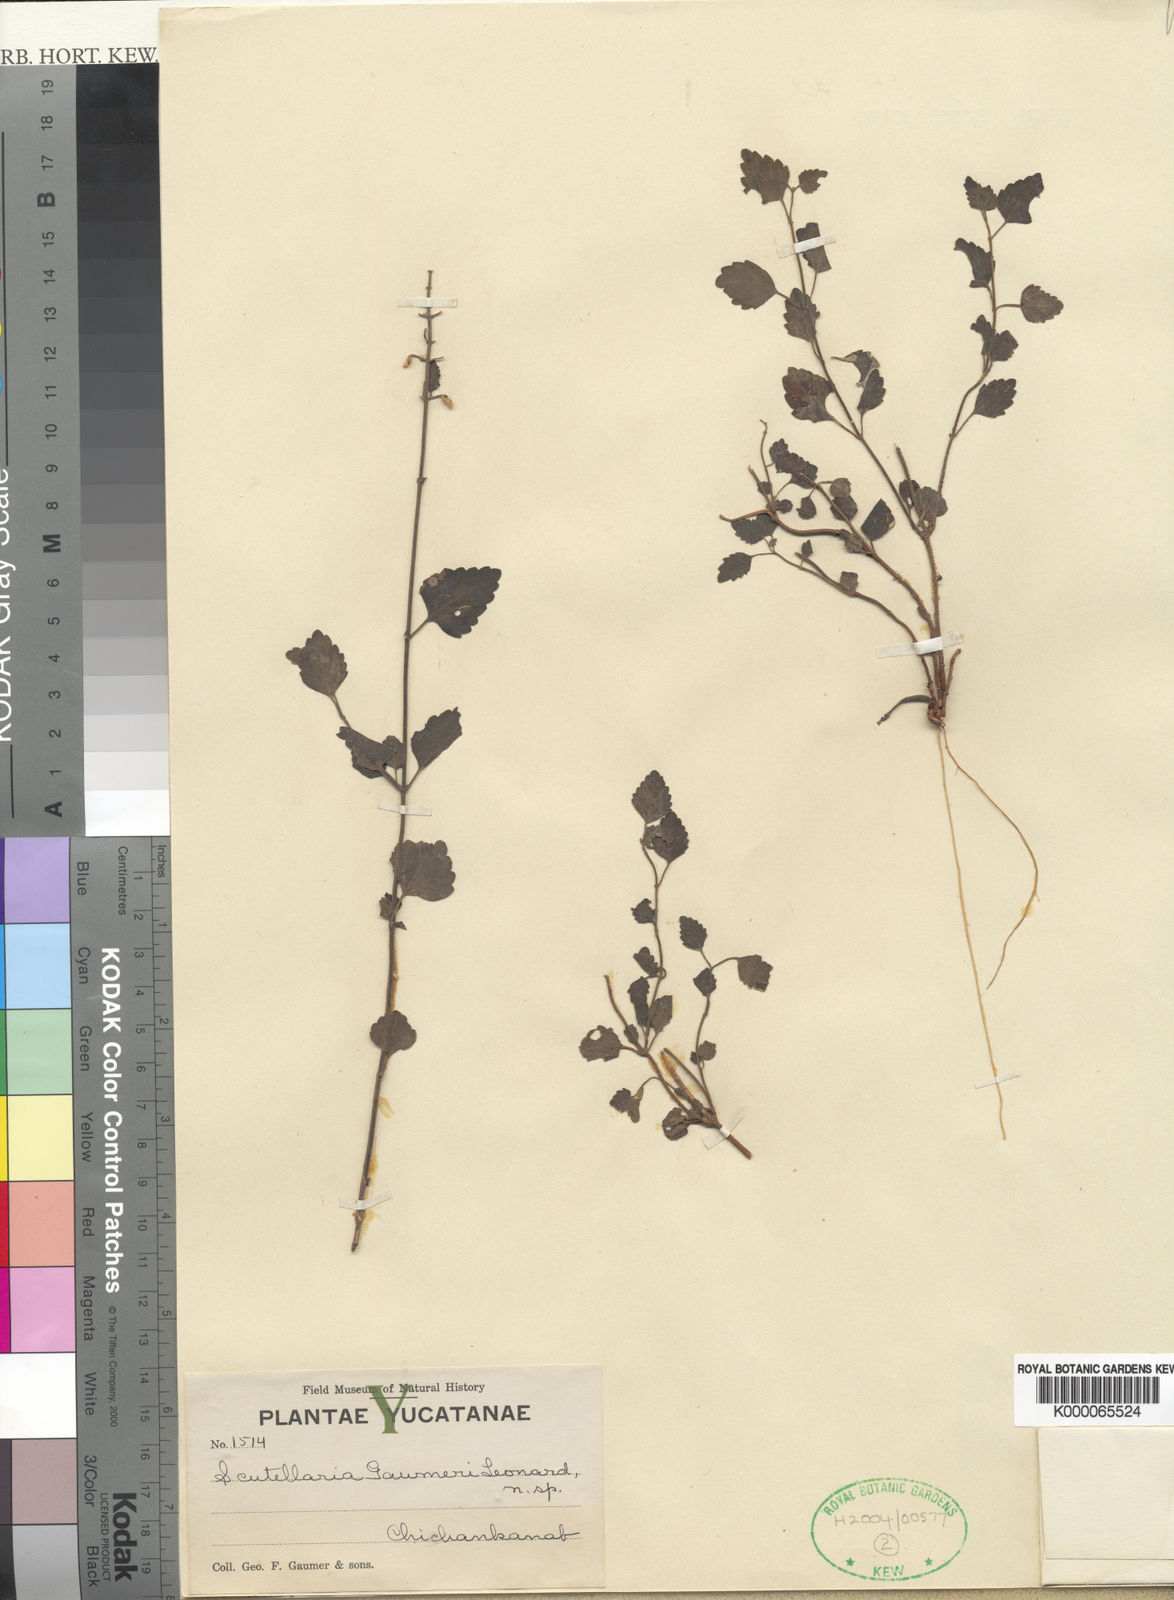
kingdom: Plantae
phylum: Tracheophyta
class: Magnoliopsida
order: Lamiales
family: Lamiaceae
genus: Scutellaria
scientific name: Scutellaria gaumeri
